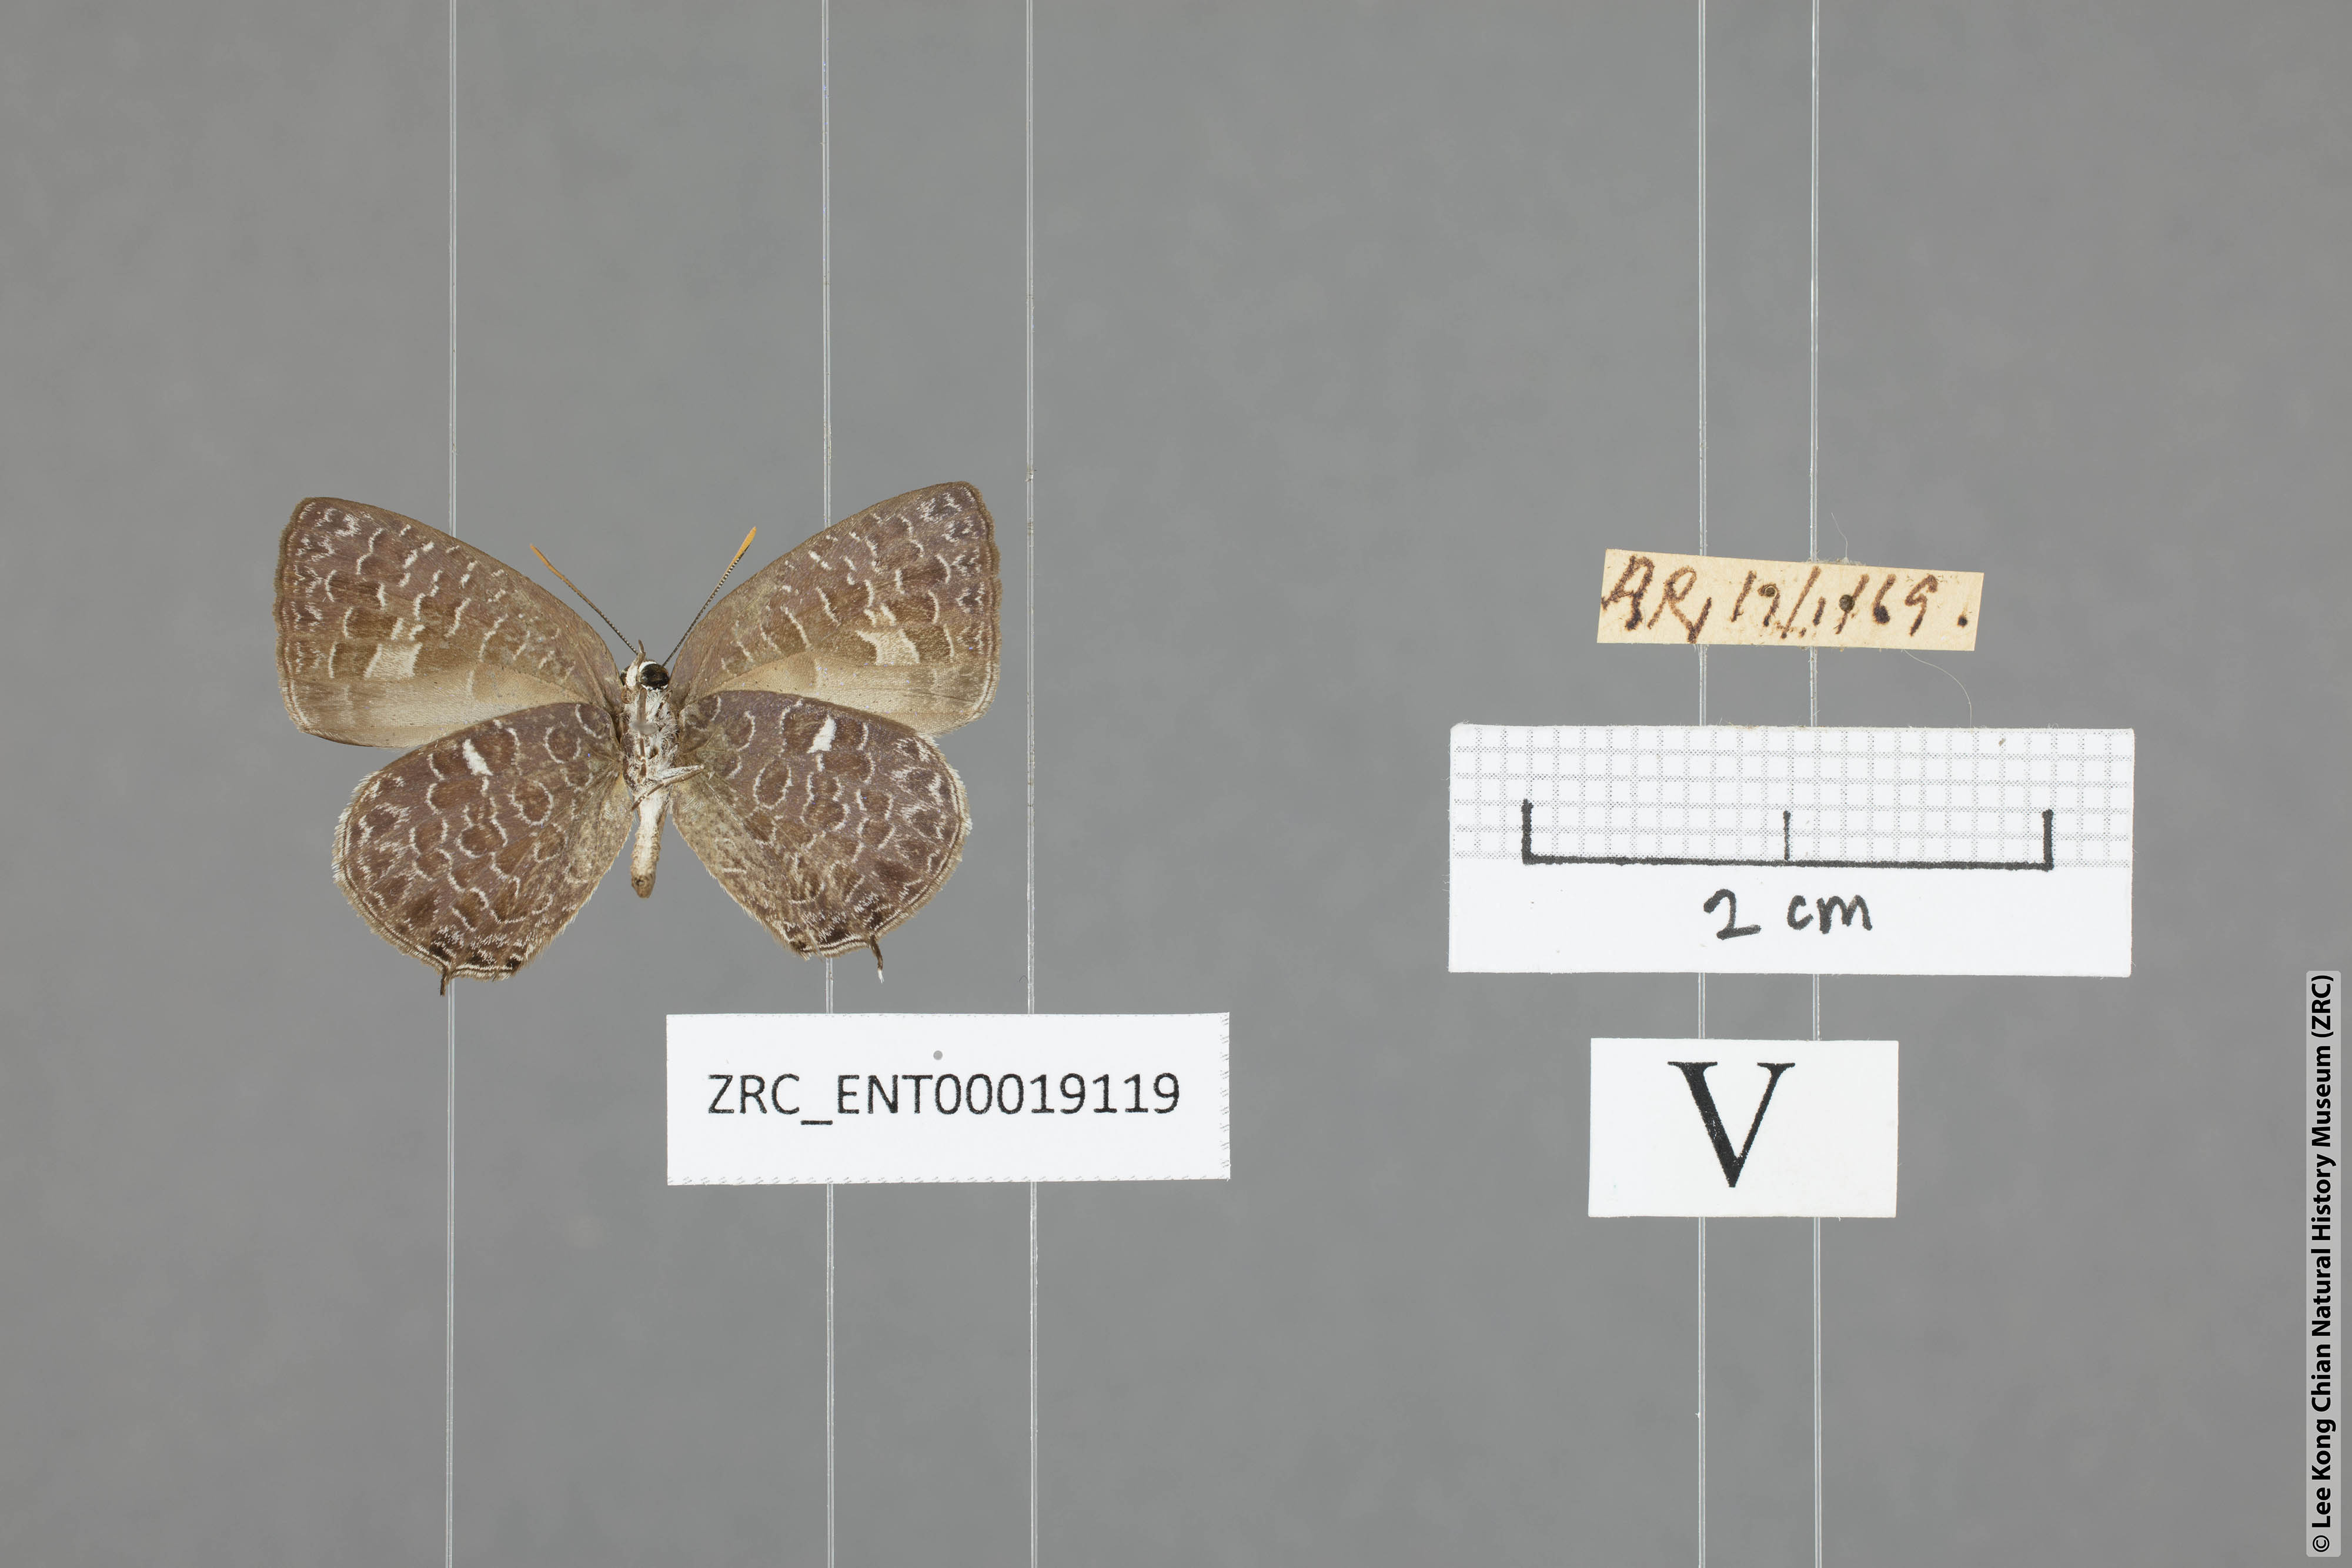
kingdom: Animalia
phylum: Arthropoda
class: Insecta
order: Lepidoptera
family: Lycaenidae
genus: Arhopala
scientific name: Arhopala ammonides
